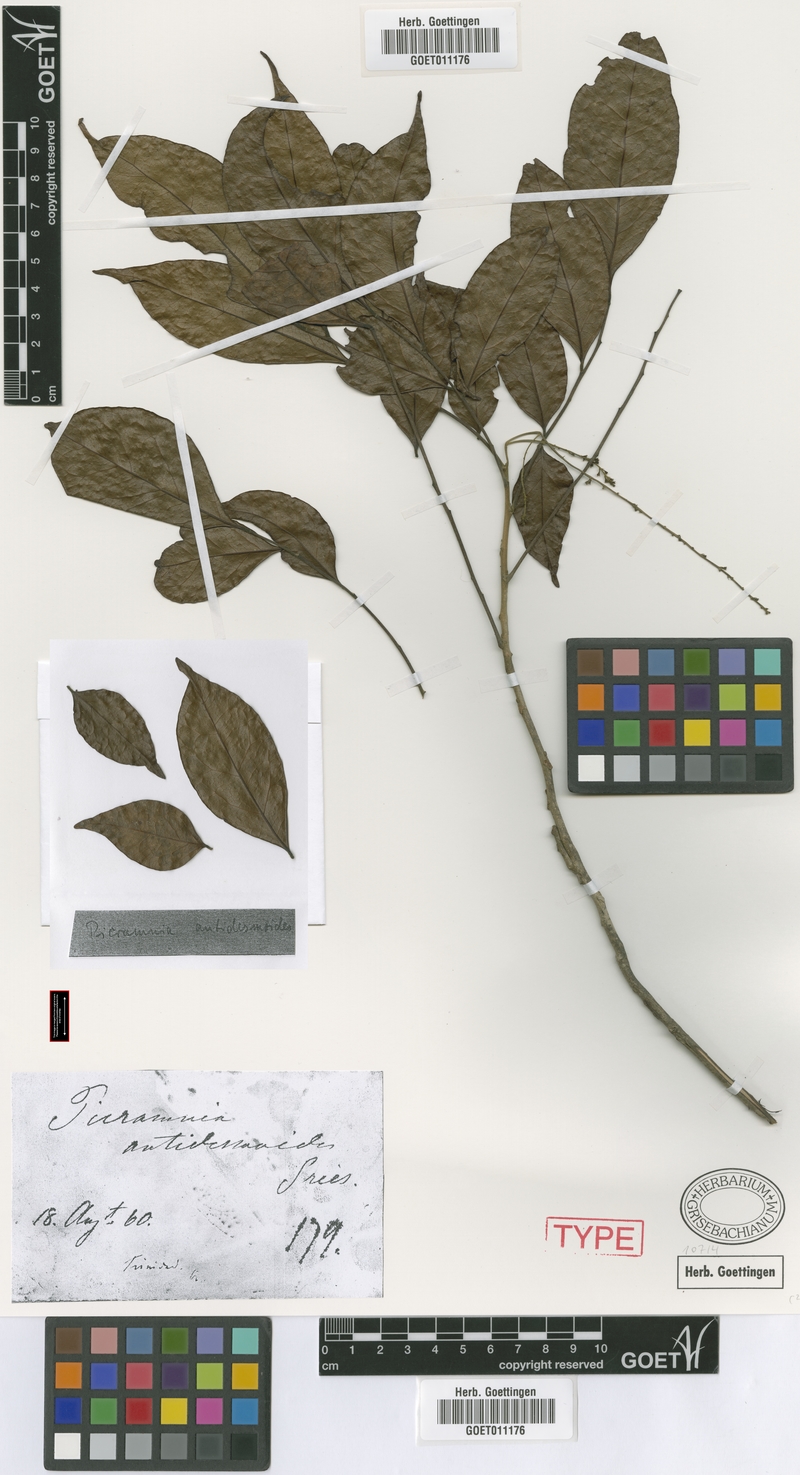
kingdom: Plantae
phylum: Tracheophyta
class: Magnoliopsida
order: Picramniales
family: Picramniaceae
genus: Picramnia
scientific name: Picramnia pentandra
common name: Florida bitterbush
